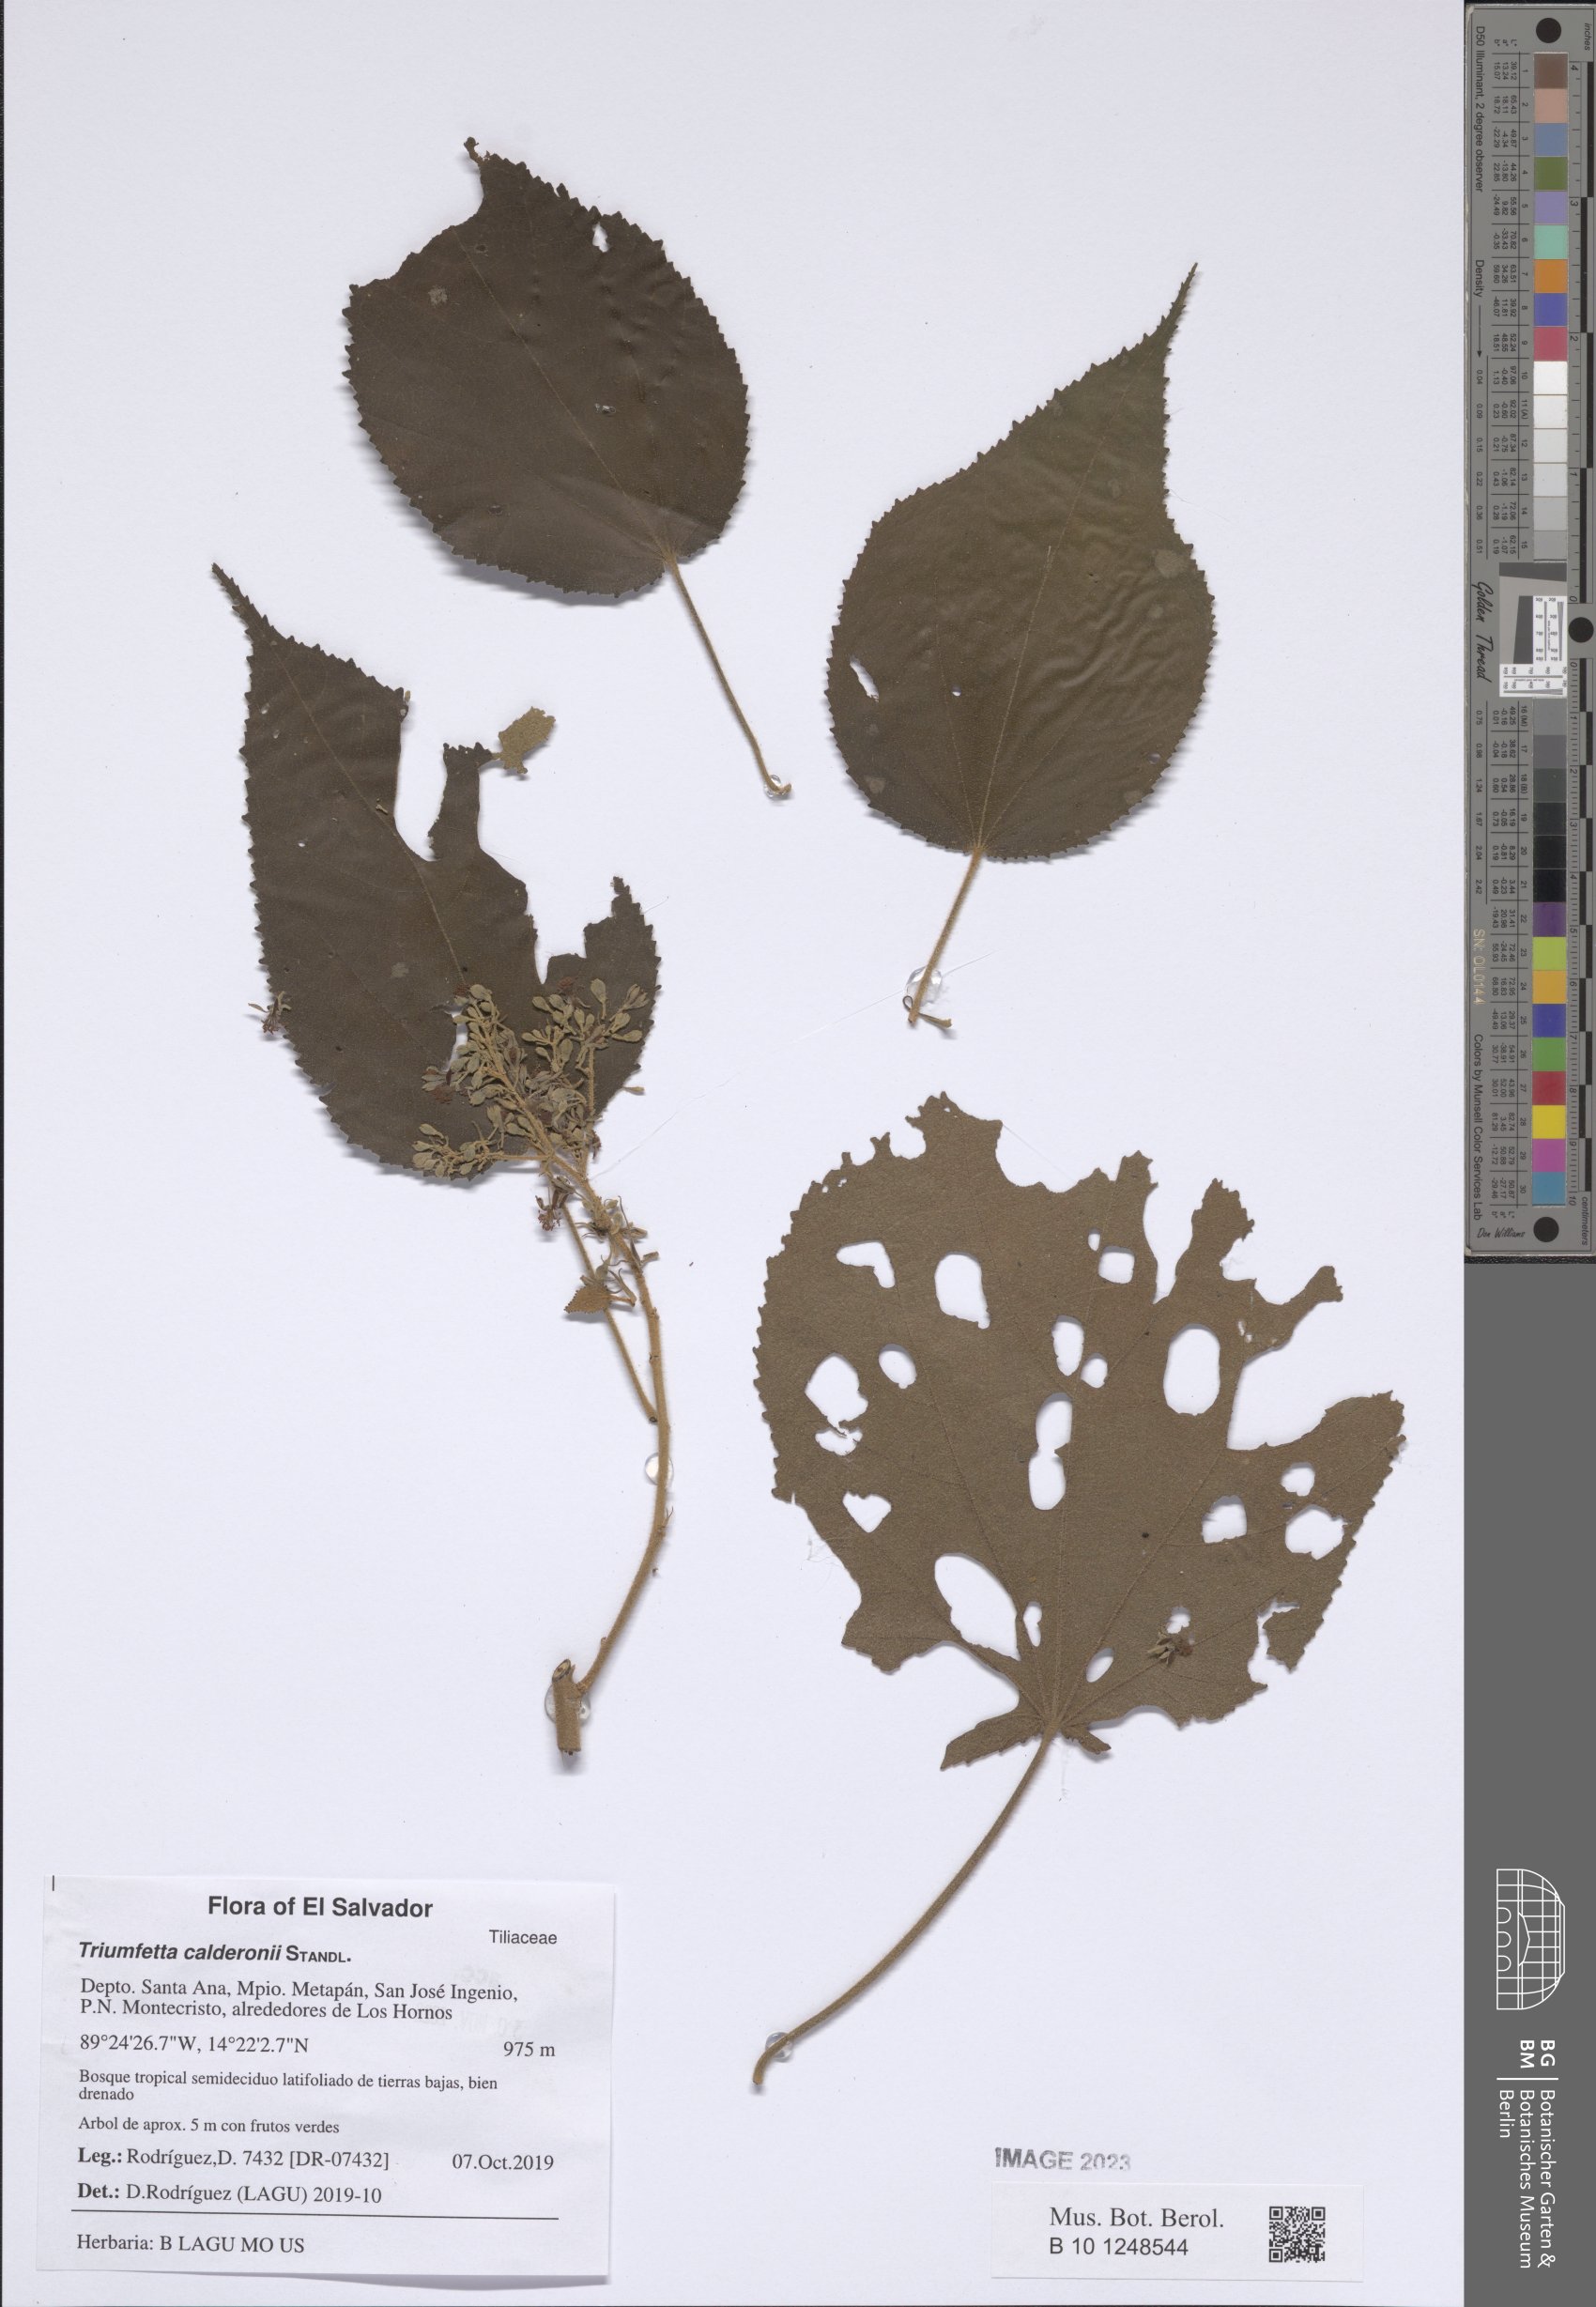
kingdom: Plantae
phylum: Tracheophyta
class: Magnoliopsida
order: Malvales
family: Malvaceae
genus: Triumfetta
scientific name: Triumfetta calderonii
